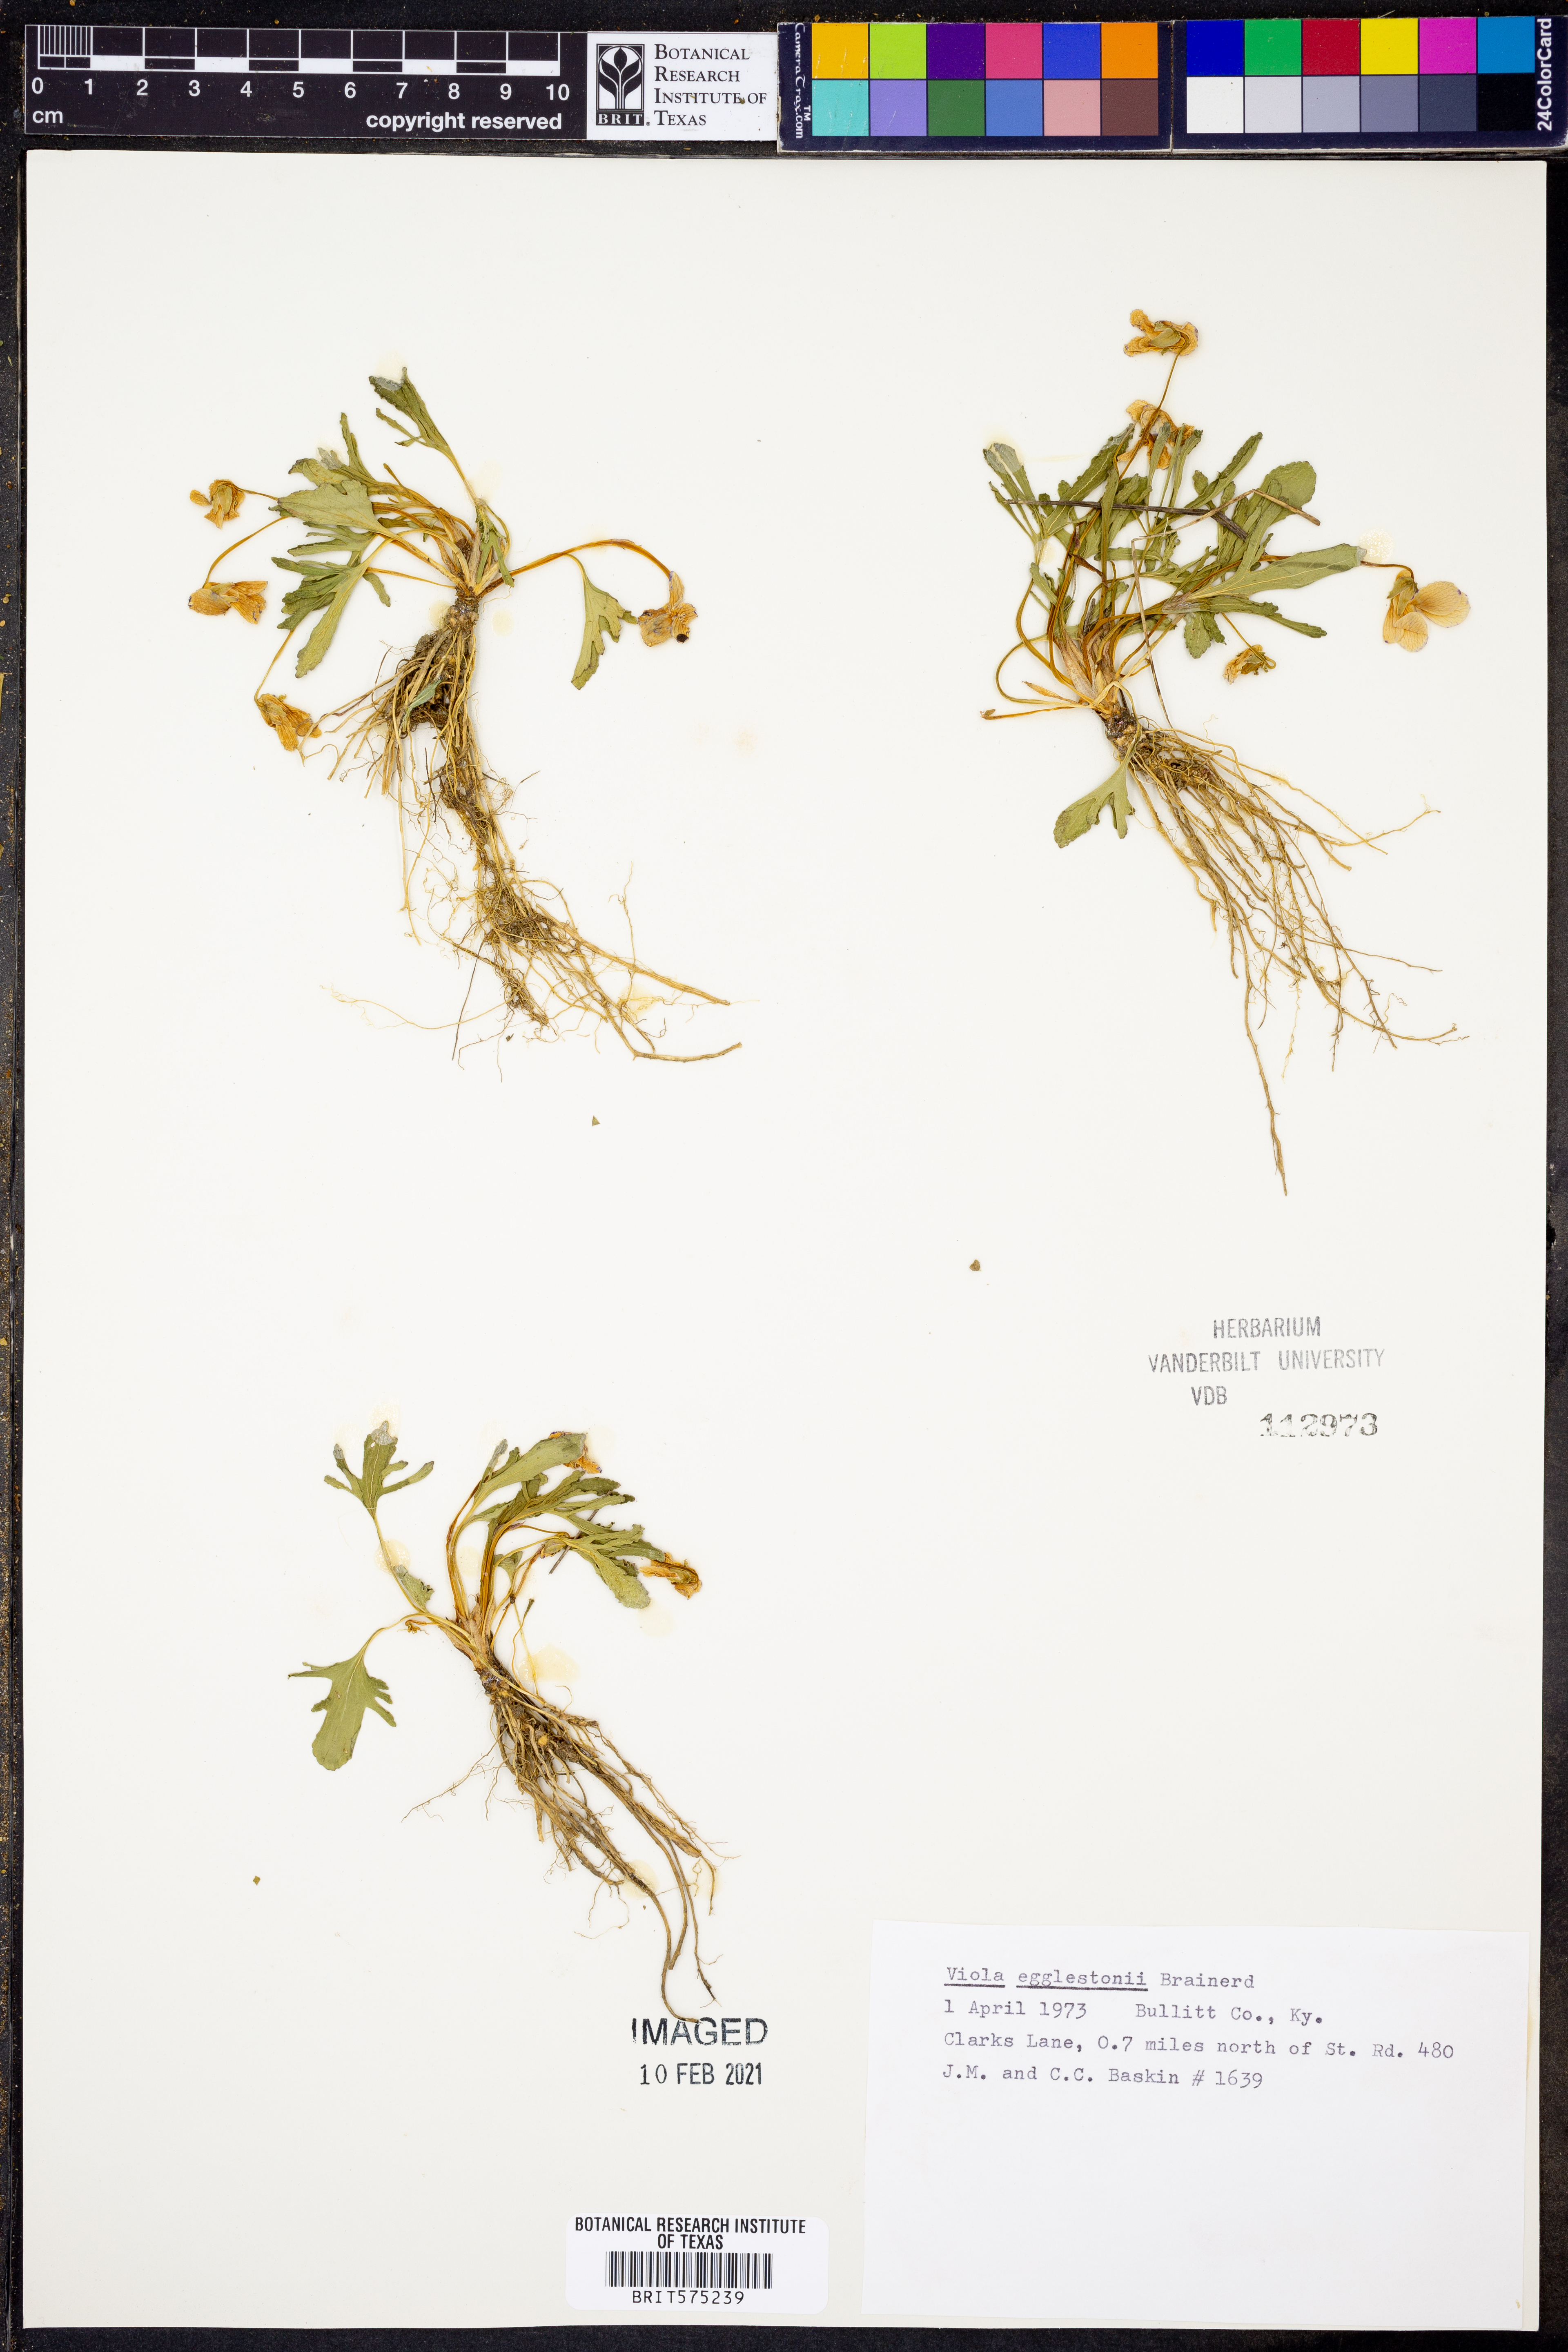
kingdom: Plantae
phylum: Tracheophyta
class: Magnoliopsida
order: Malpighiales
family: Violaceae
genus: Viola
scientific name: Viola egglestonii
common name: Glade violet
